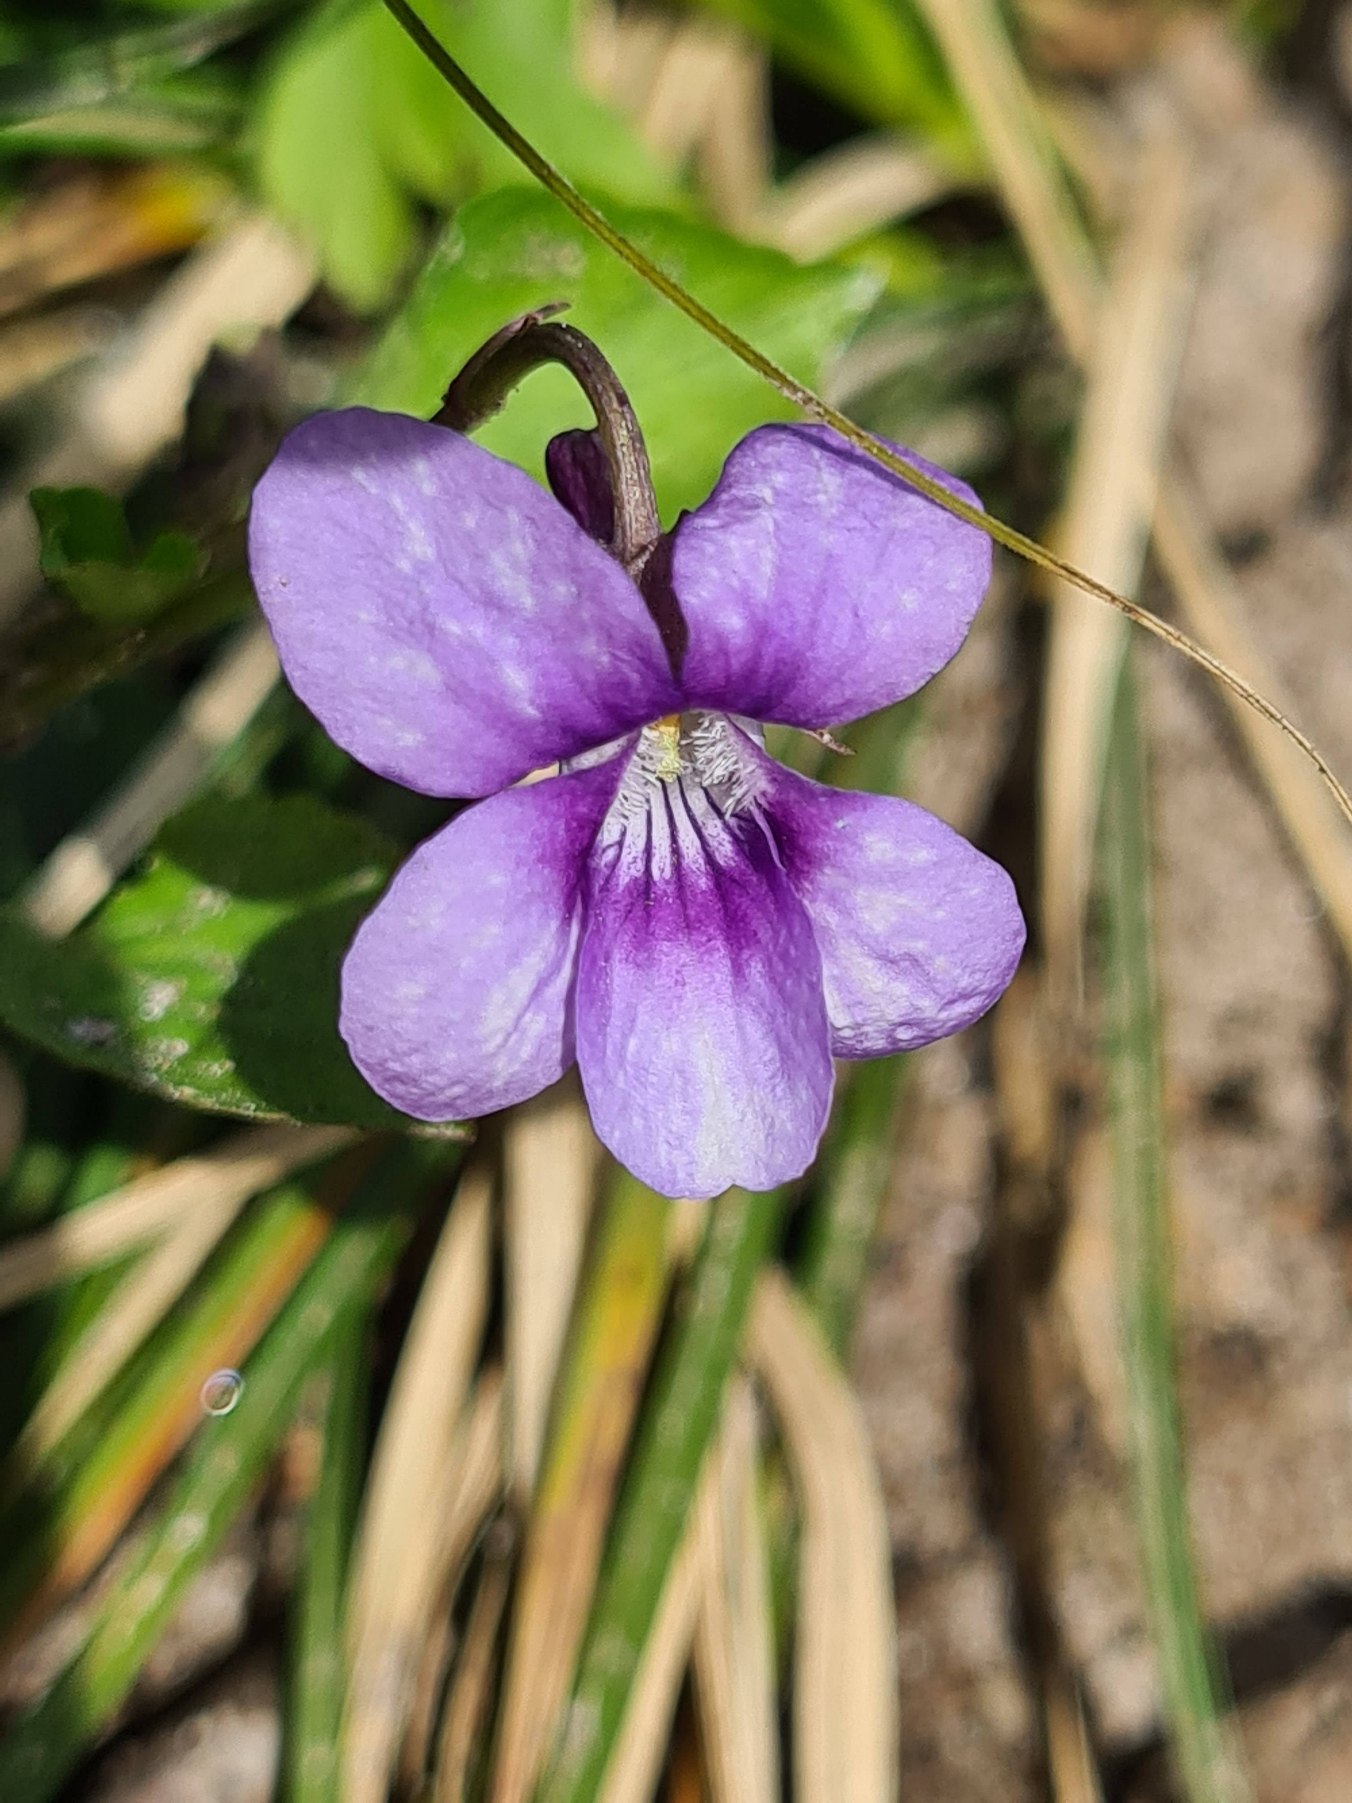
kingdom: Plantae
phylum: Tracheophyta
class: Magnoliopsida
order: Malpighiales
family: Violaceae
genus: Viola
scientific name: Viola reichenbachiana
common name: Skov-viol
